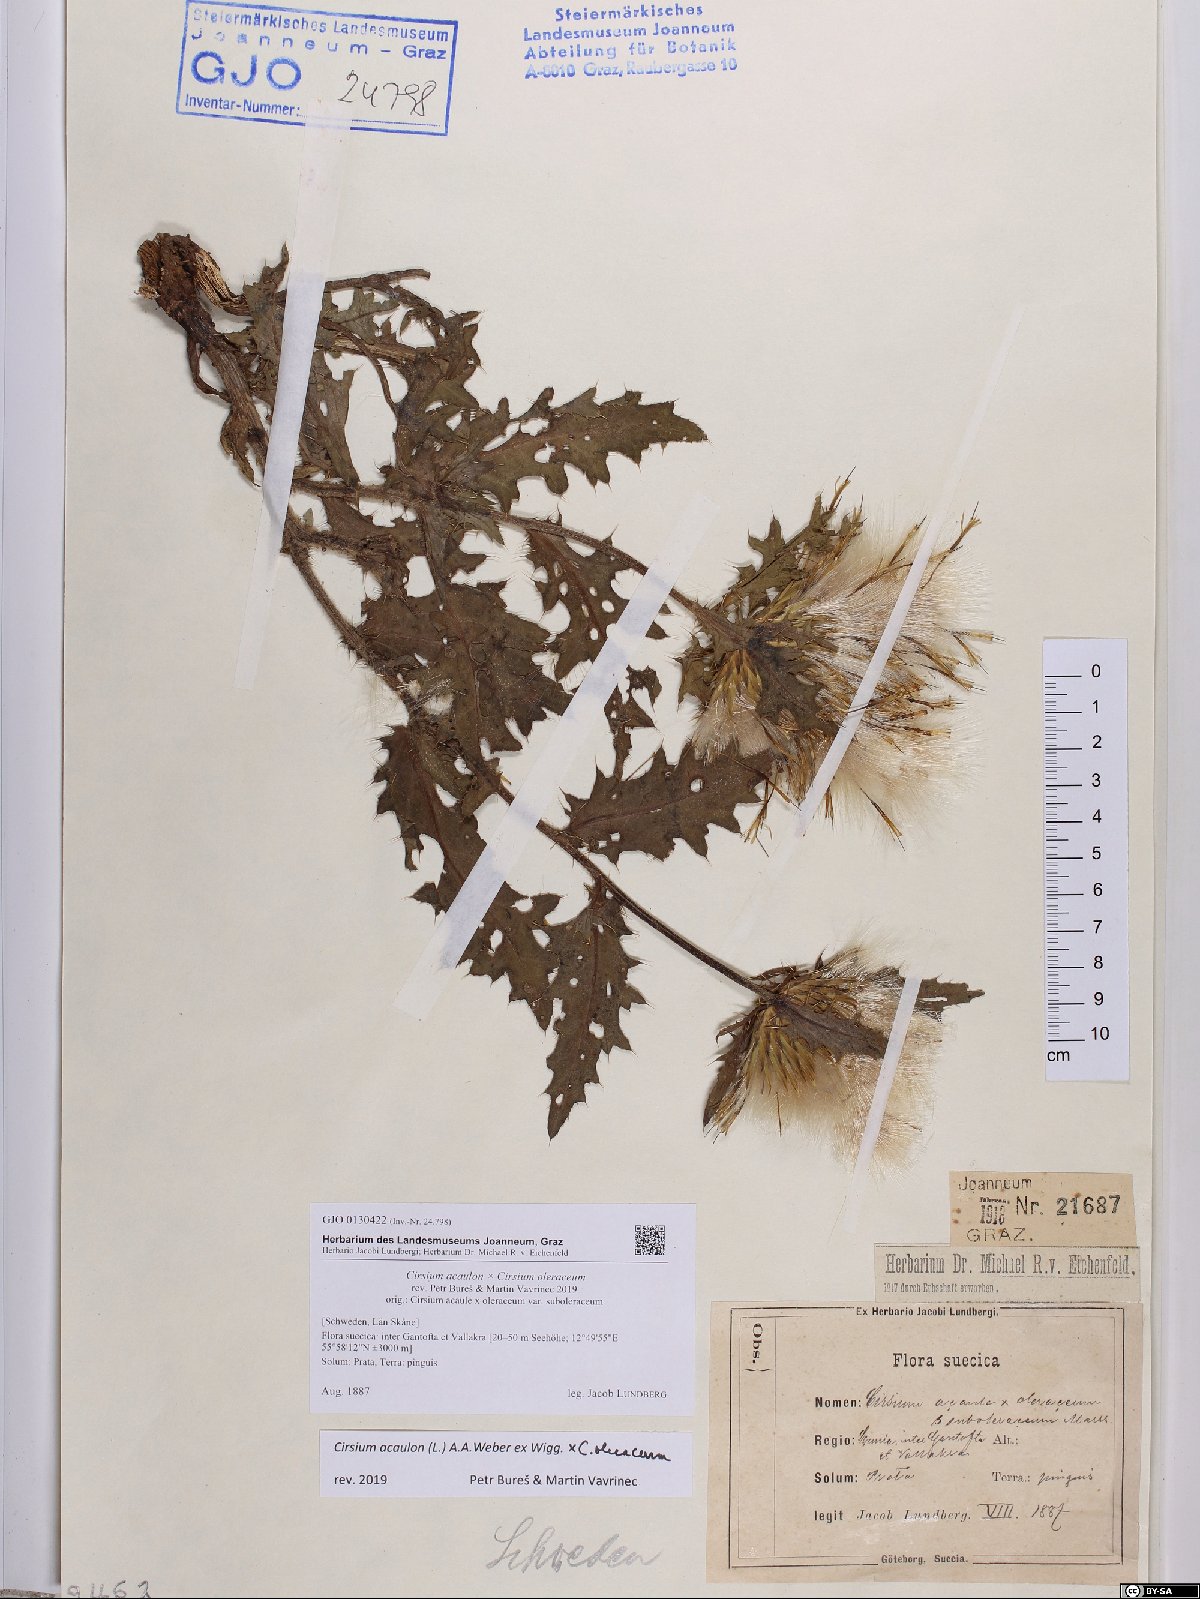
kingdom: Plantae
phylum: Tracheophyta
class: Magnoliopsida
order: Asterales
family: Asteraceae
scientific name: Asteraceae
